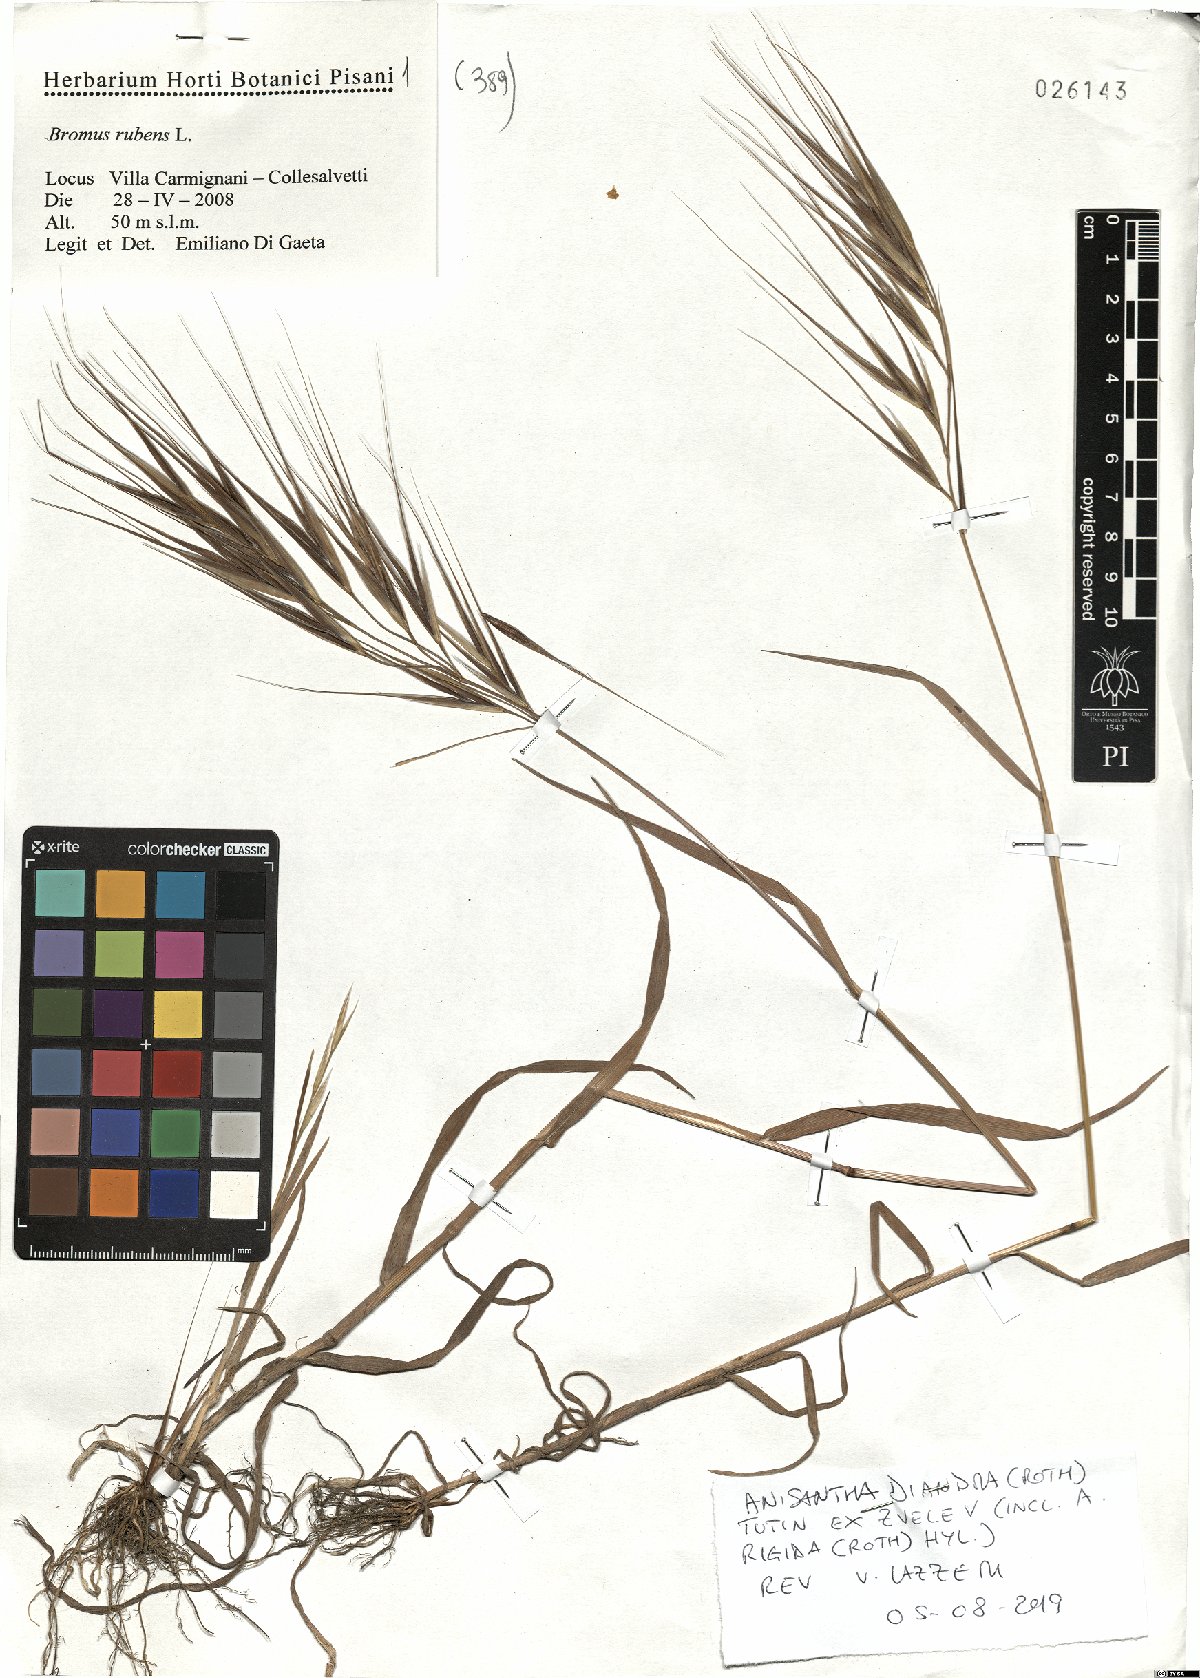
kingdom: Plantae
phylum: Tracheophyta
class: Liliopsida
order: Poales
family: Poaceae
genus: Bromus
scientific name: Bromus diandrus
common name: Ripgut brome
